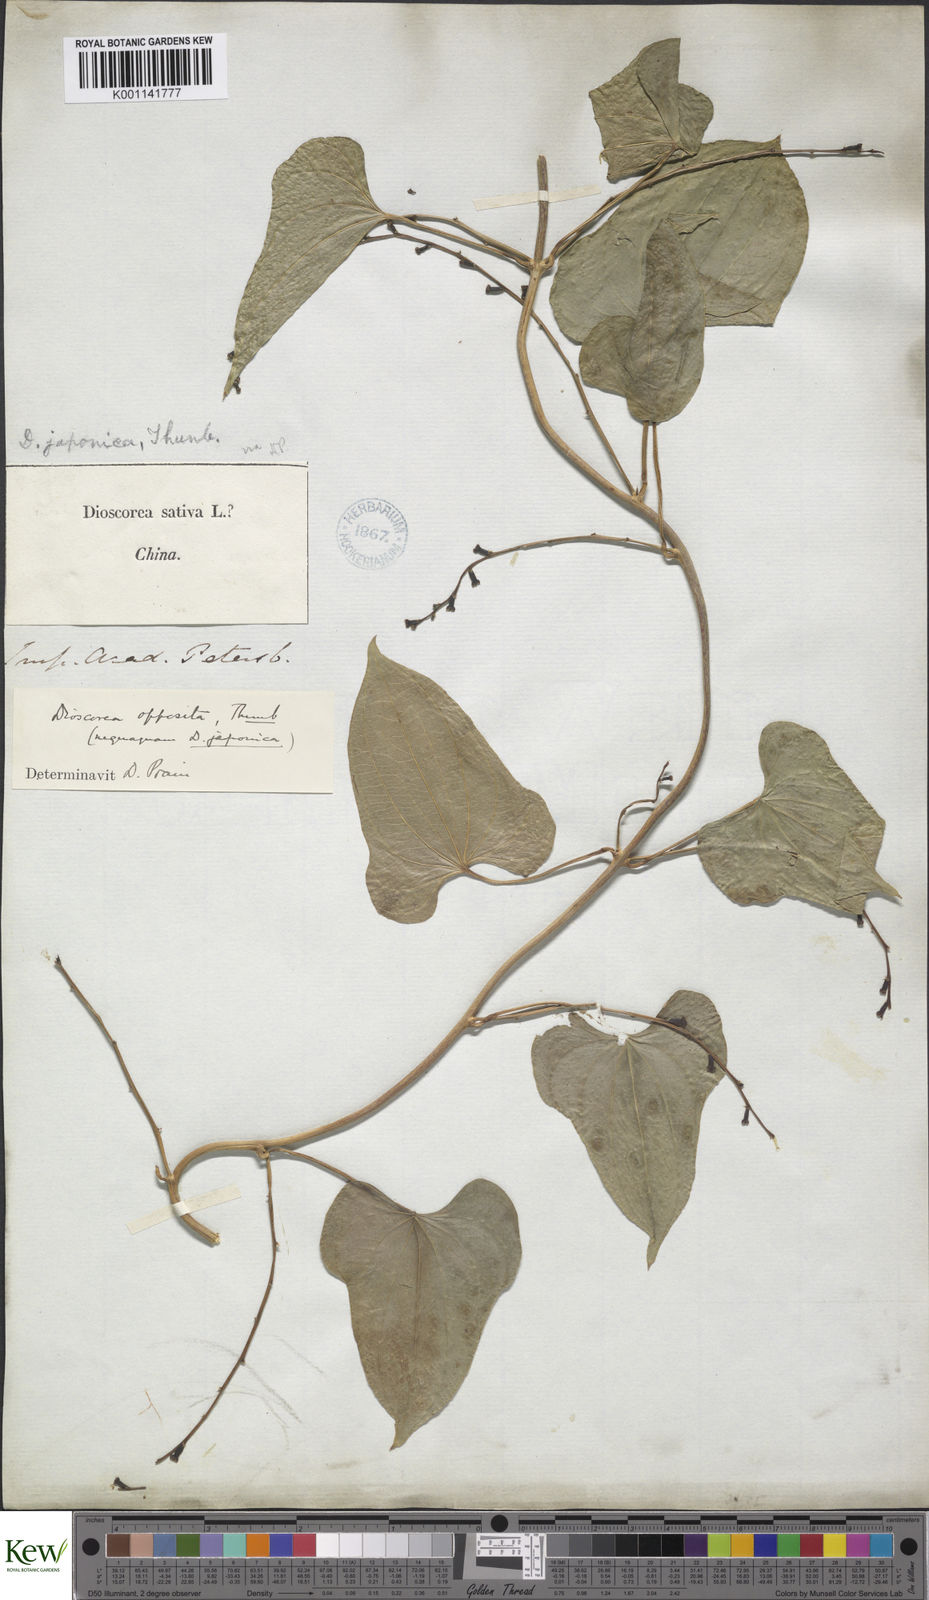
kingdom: Plantae
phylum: Tracheophyta
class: Liliopsida
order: Dioscoreales
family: Dioscoreaceae
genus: Dioscorea
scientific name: Dioscorea oppositifolia
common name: Chinese yam
